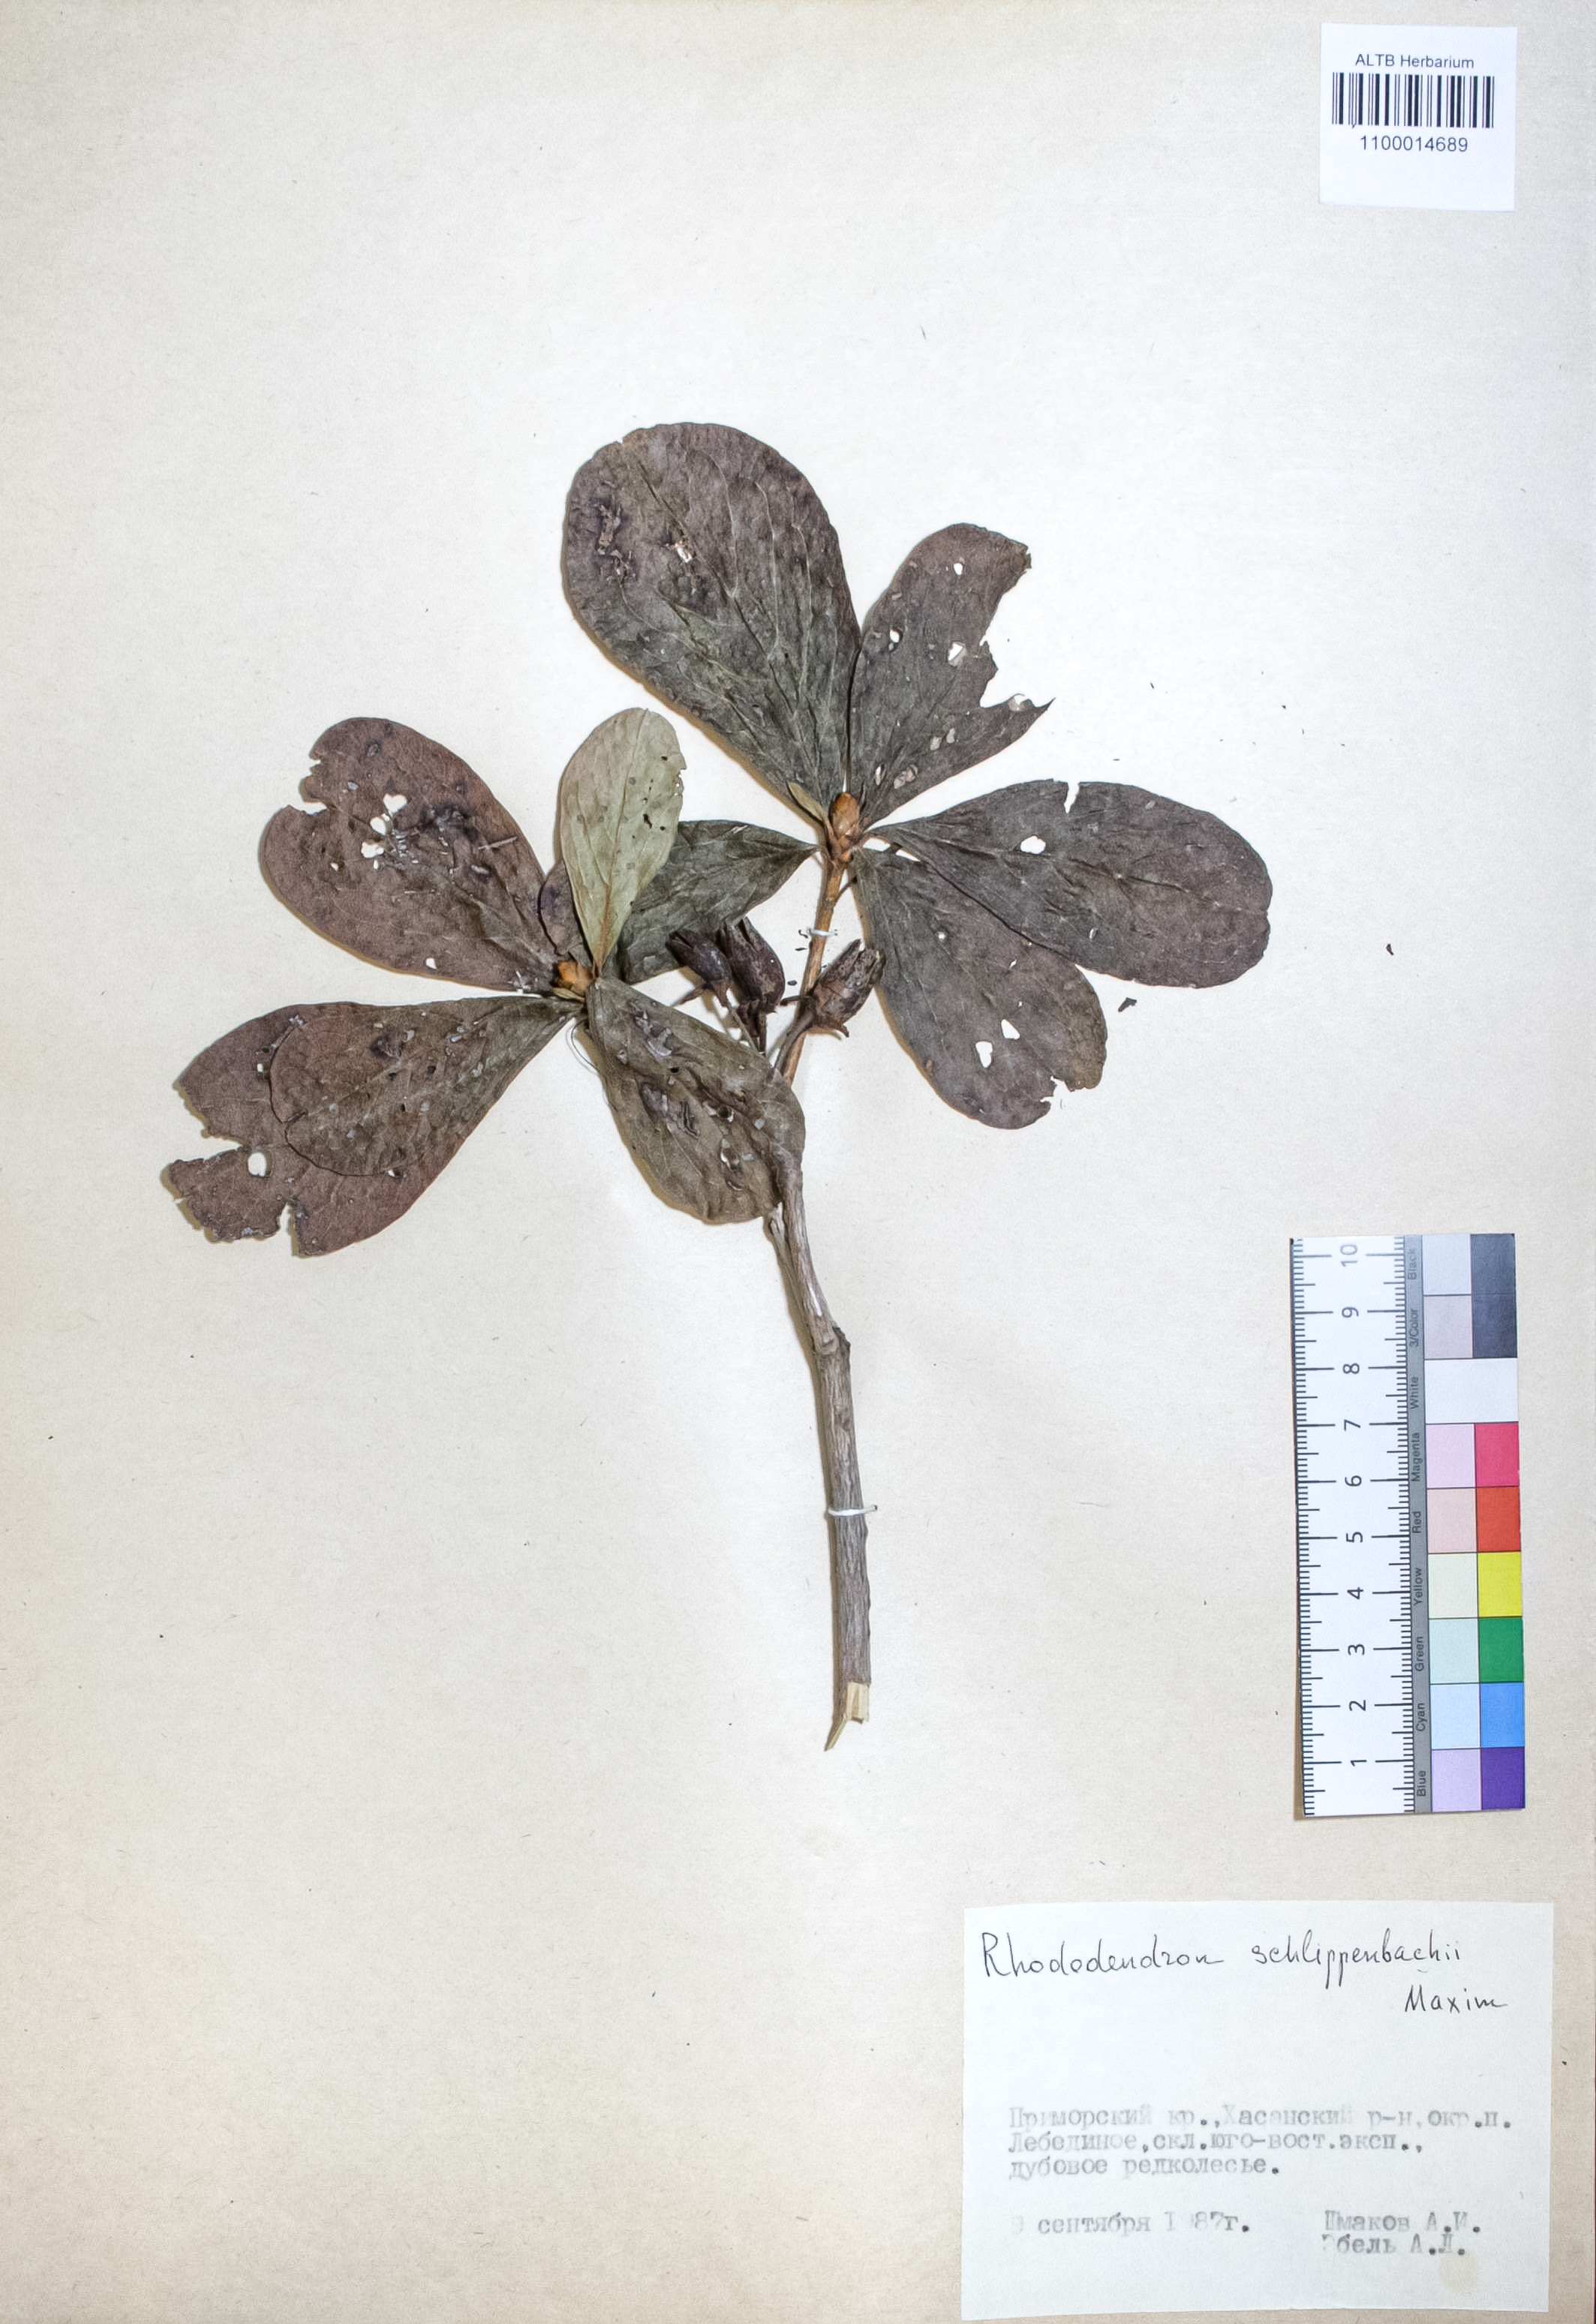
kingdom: Plantae
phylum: Tracheophyta
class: Magnoliopsida
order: Ericales
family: Ericaceae
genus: Rhododendron
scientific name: Rhododendron schlippenbachii
